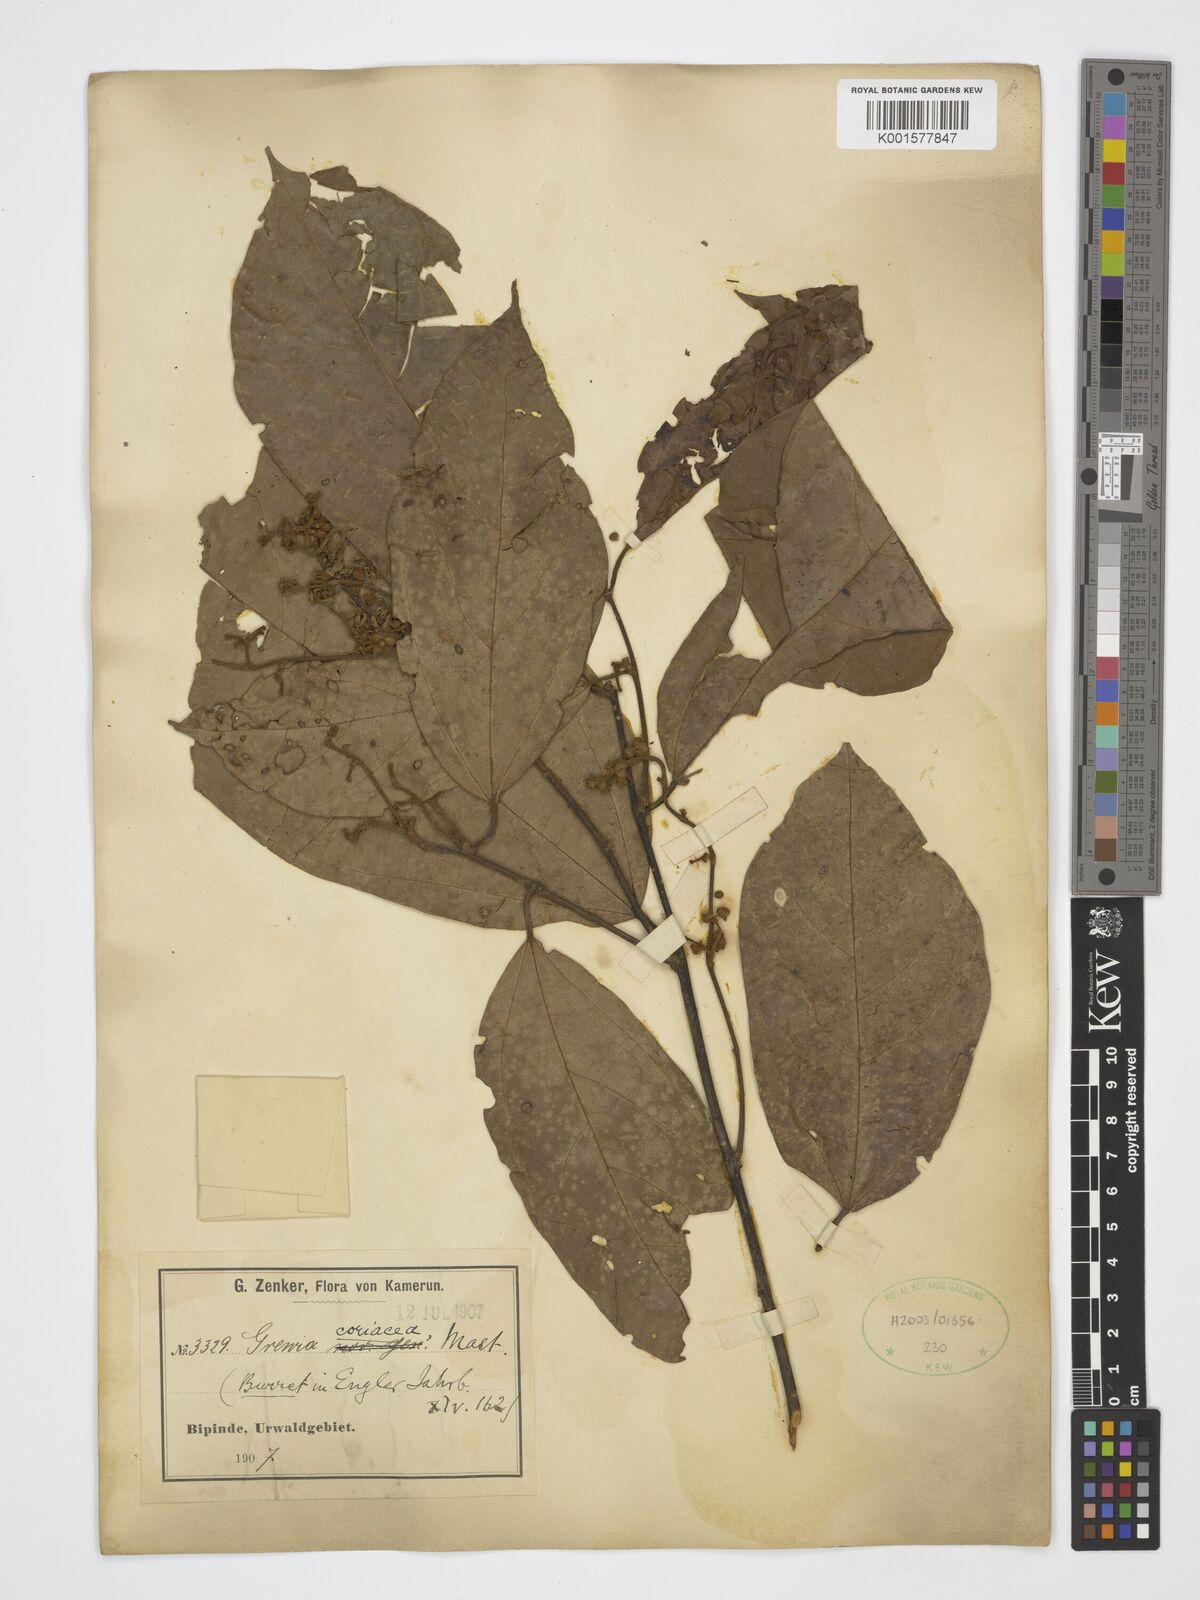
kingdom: Plantae
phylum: Tracheophyta
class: Magnoliopsida
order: Malvales
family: Malvaceae
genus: Microcos
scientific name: Microcos coriacea
